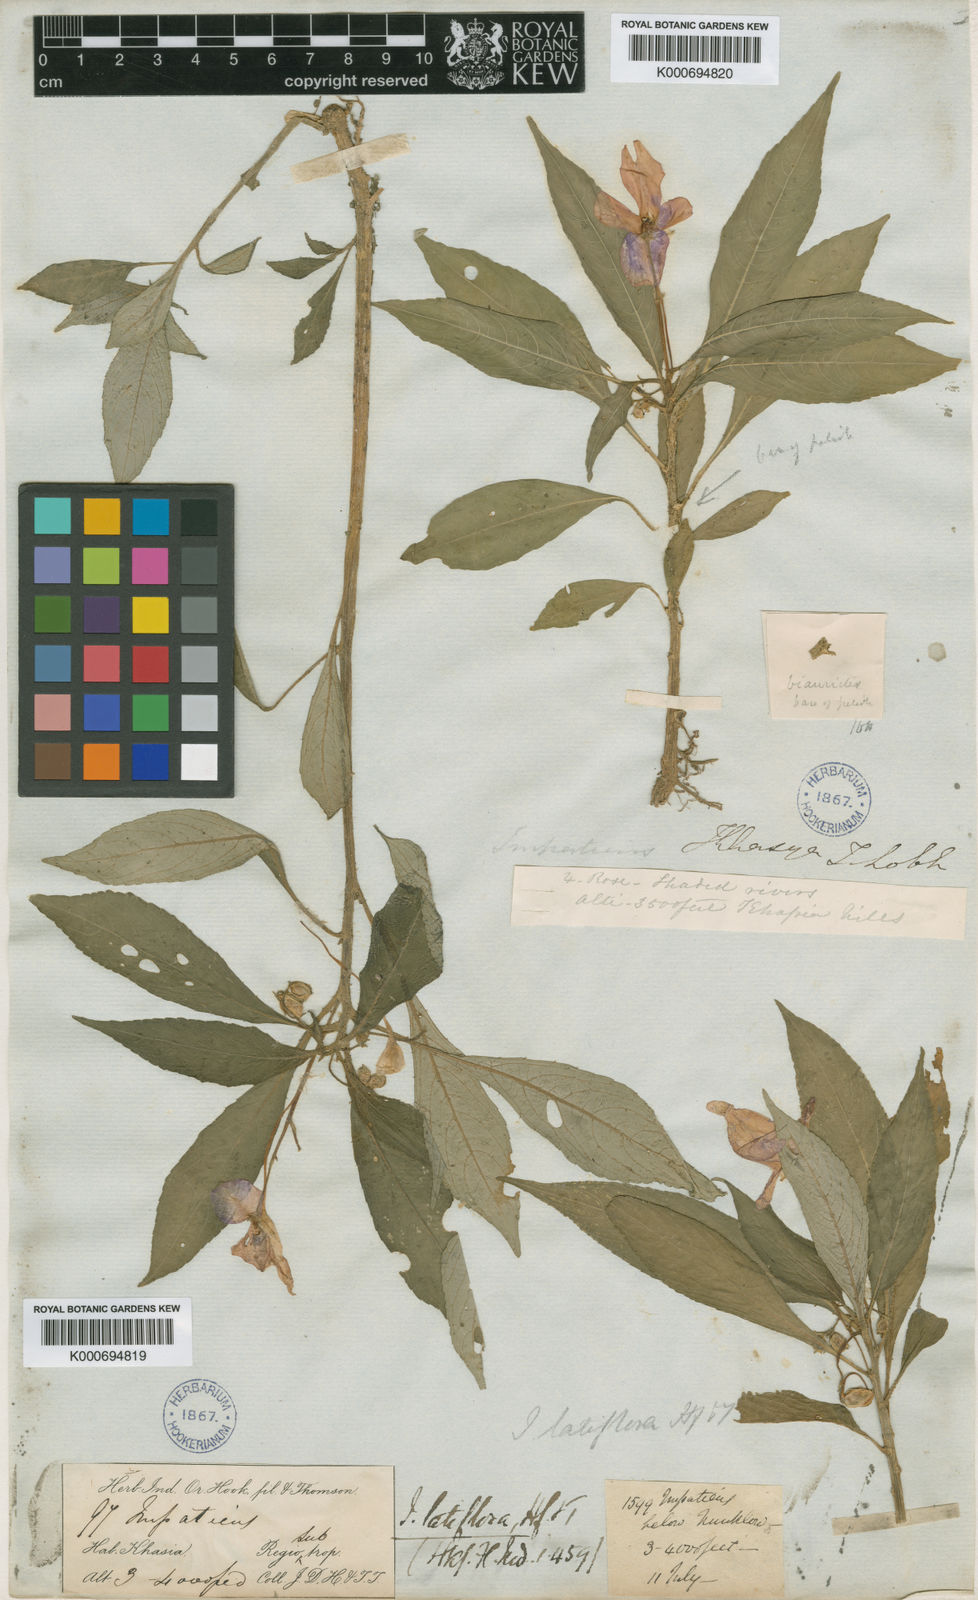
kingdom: Plantae
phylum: Tracheophyta
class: Magnoliopsida
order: Ericales
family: Balsaminaceae
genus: Impatiens
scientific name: Impatiens latiflora
